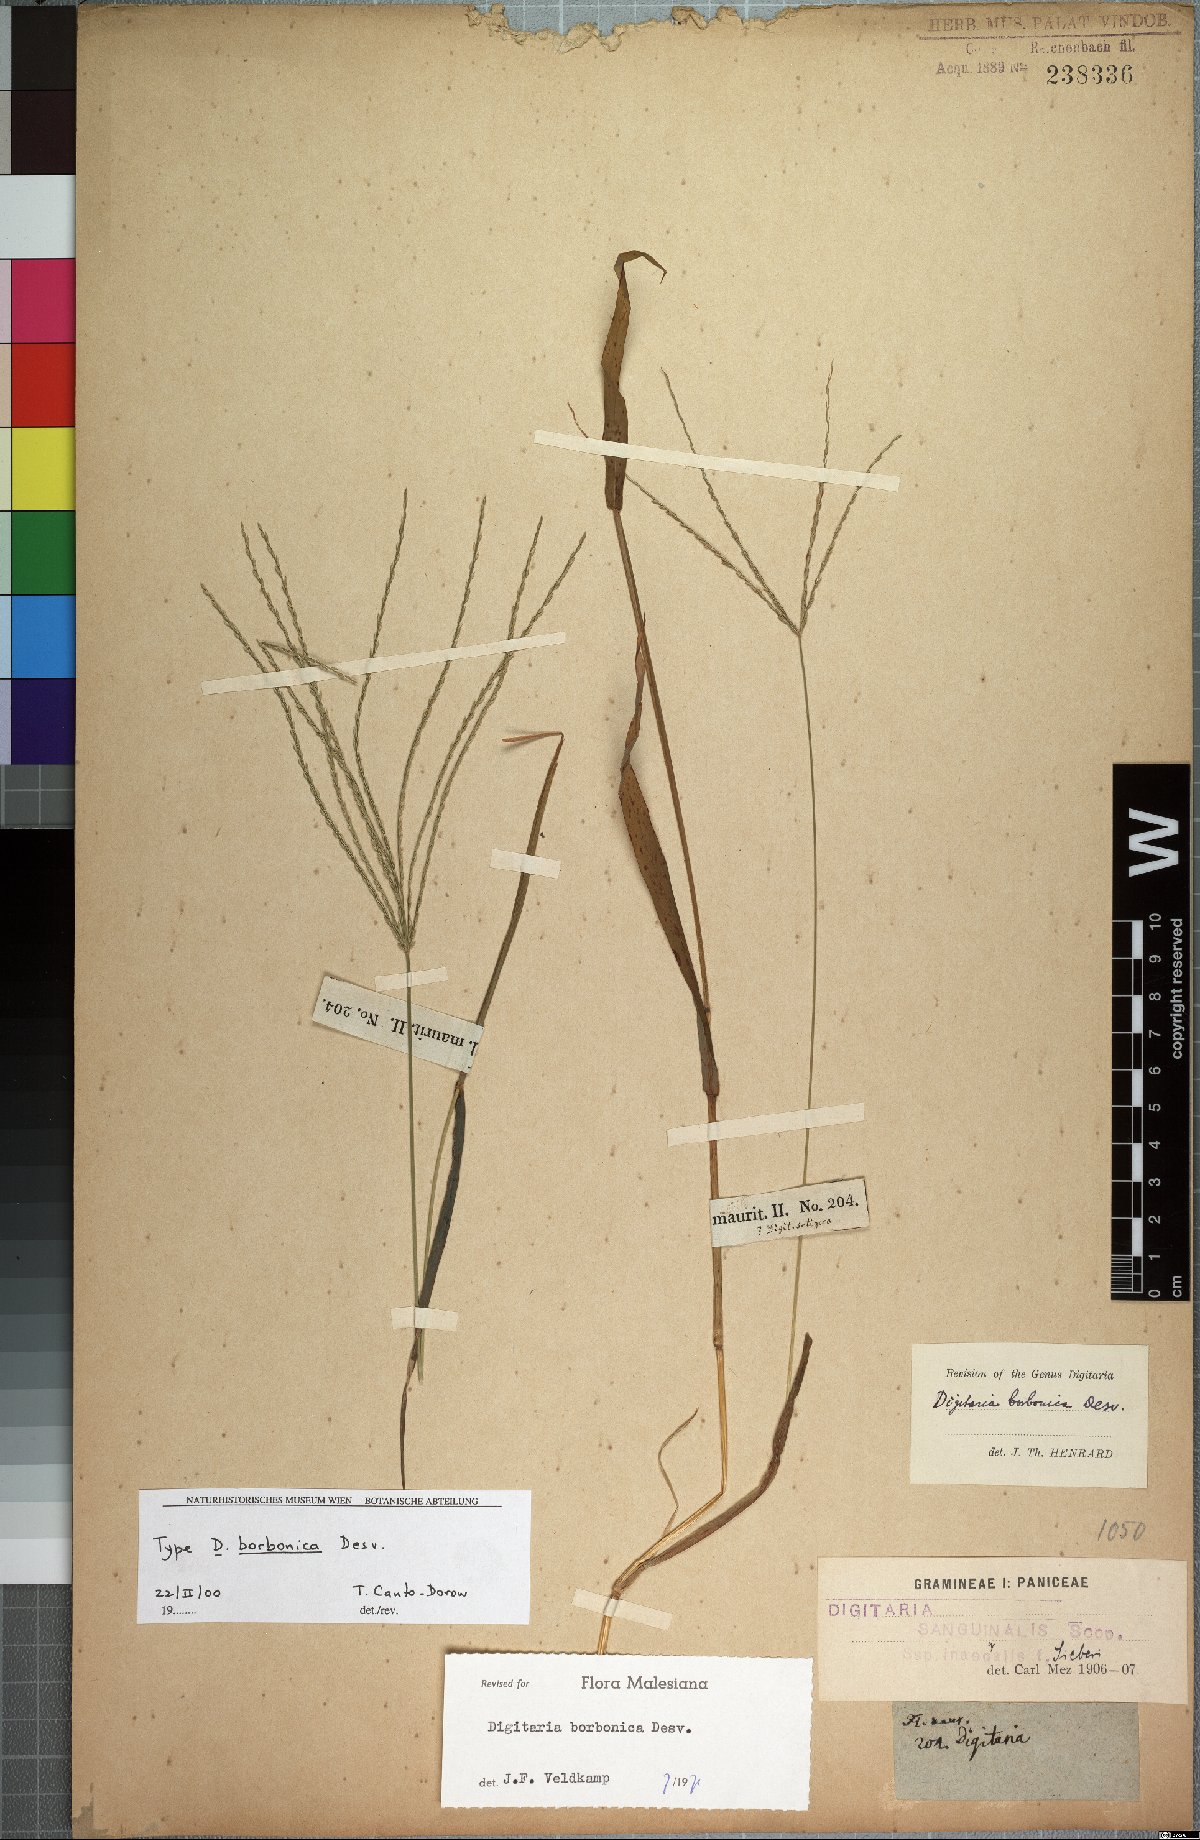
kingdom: Plantae
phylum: Tracheophyta
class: Liliopsida
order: Poales
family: Poaceae
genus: Digitaria
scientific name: Digitaria nuda
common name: Naked crabgrass
